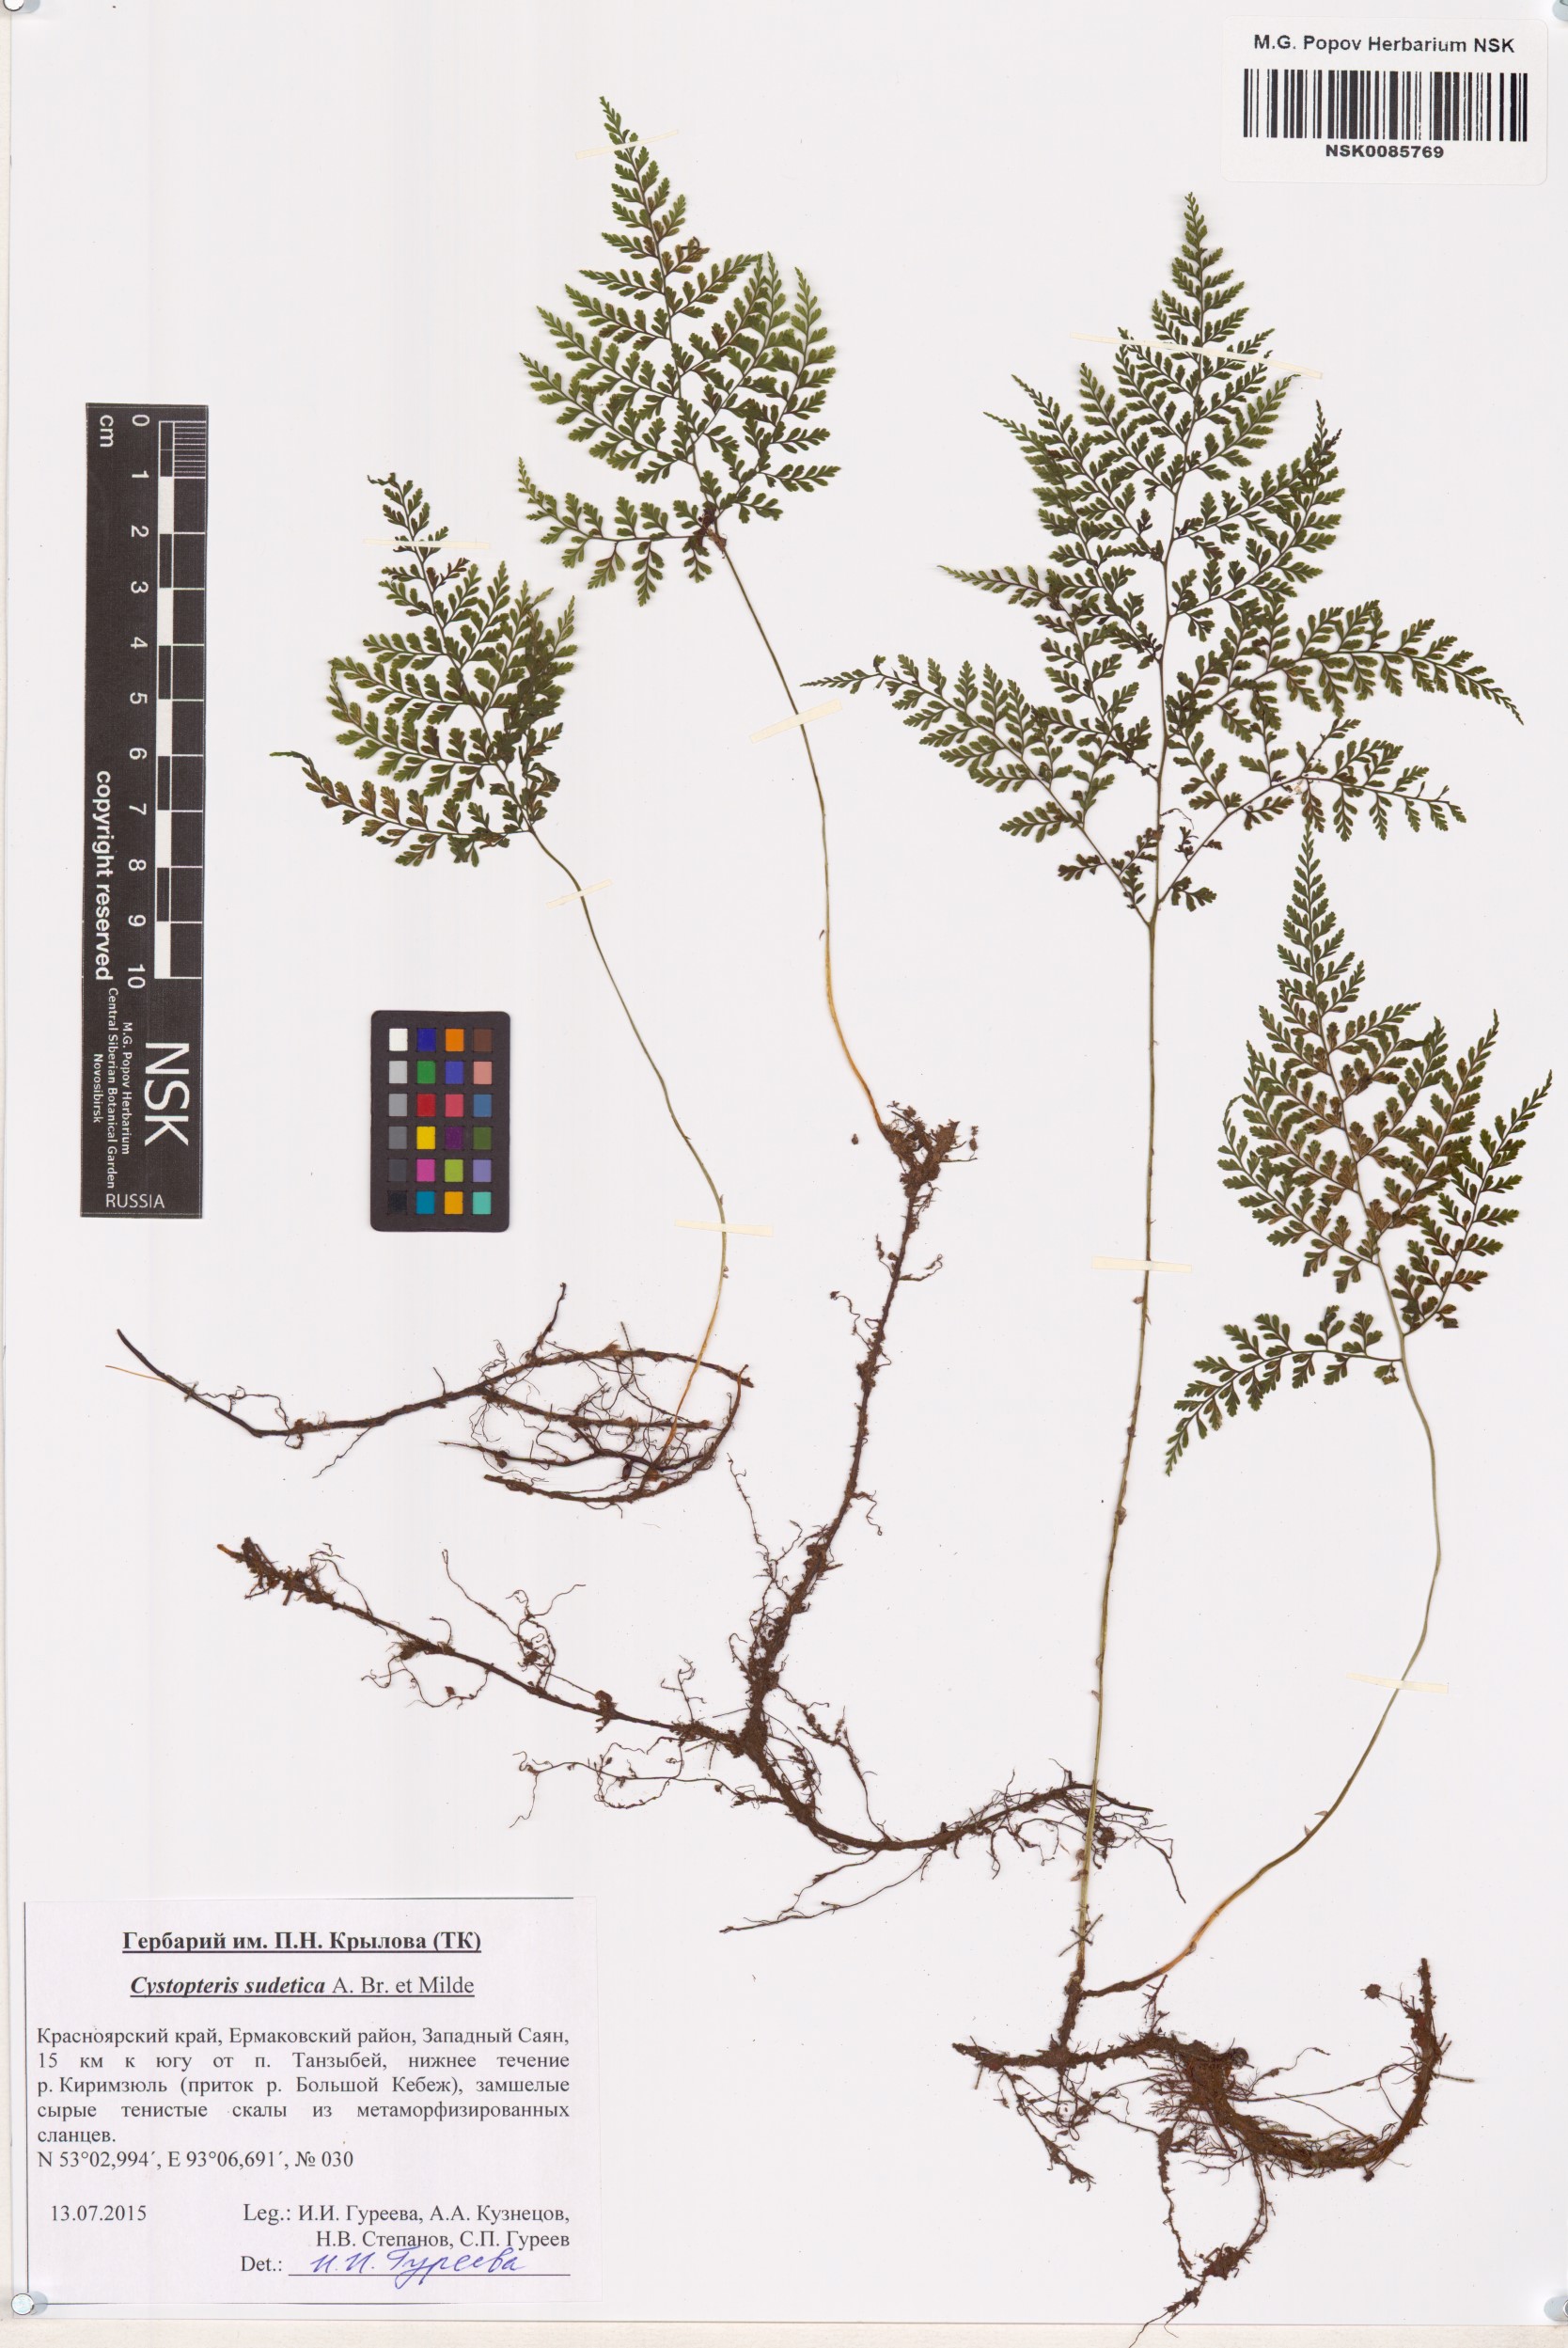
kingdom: Plantae
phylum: Tracheophyta
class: Polypodiopsida
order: Polypodiales
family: Cystopteridaceae
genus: Cystopteris
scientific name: Cystopteris sudetica
